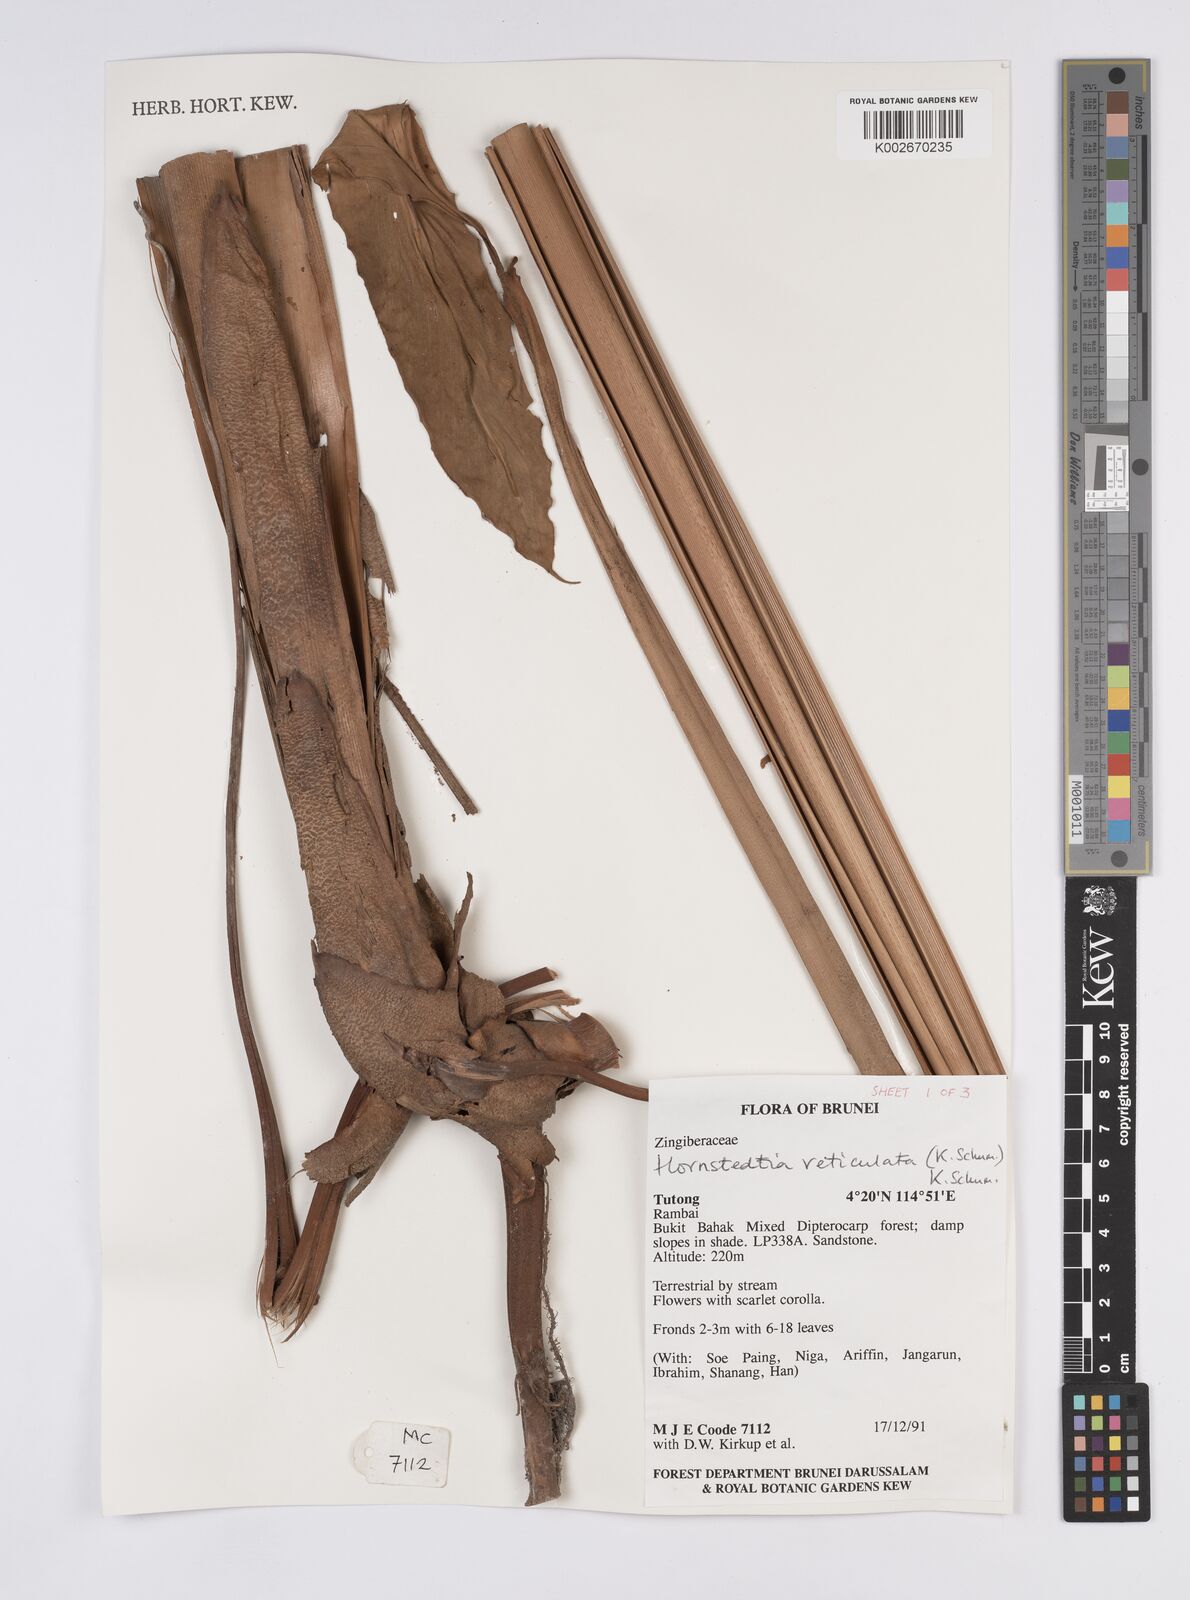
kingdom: Plantae
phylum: Tracheophyta
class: Liliopsida
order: Zingiberales
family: Zingiberaceae
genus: Hornstedtia
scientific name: Hornstedtia reticulata
